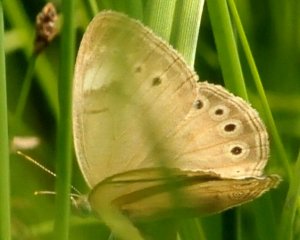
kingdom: Animalia
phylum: Arthropoda
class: Insecta
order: Lepidoptera
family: Nymphalidae
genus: Lethe
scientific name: Lethe eurydice
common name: Eyed Brown
